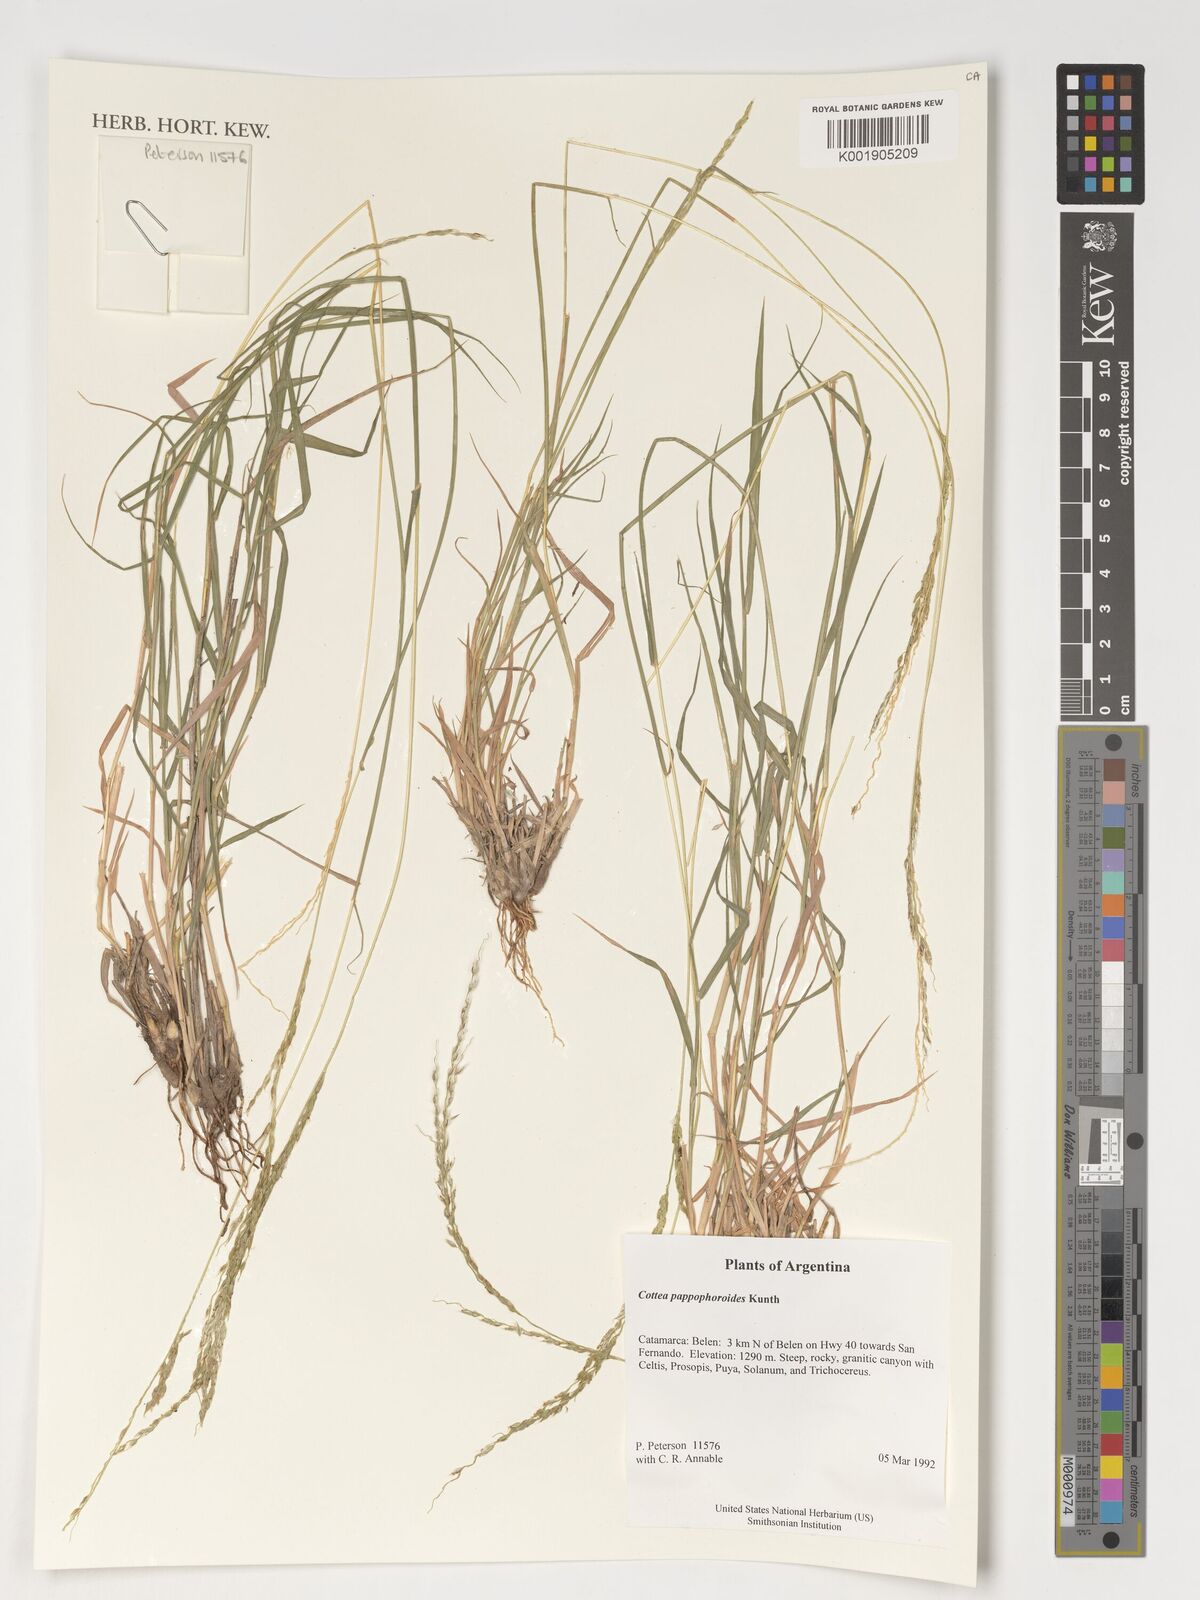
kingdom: Plantae
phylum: Tracheophyta
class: Liliopsida
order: Poales
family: Poaceae
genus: Cottea
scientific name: Cottea pappophoroides
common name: Cotta grass
